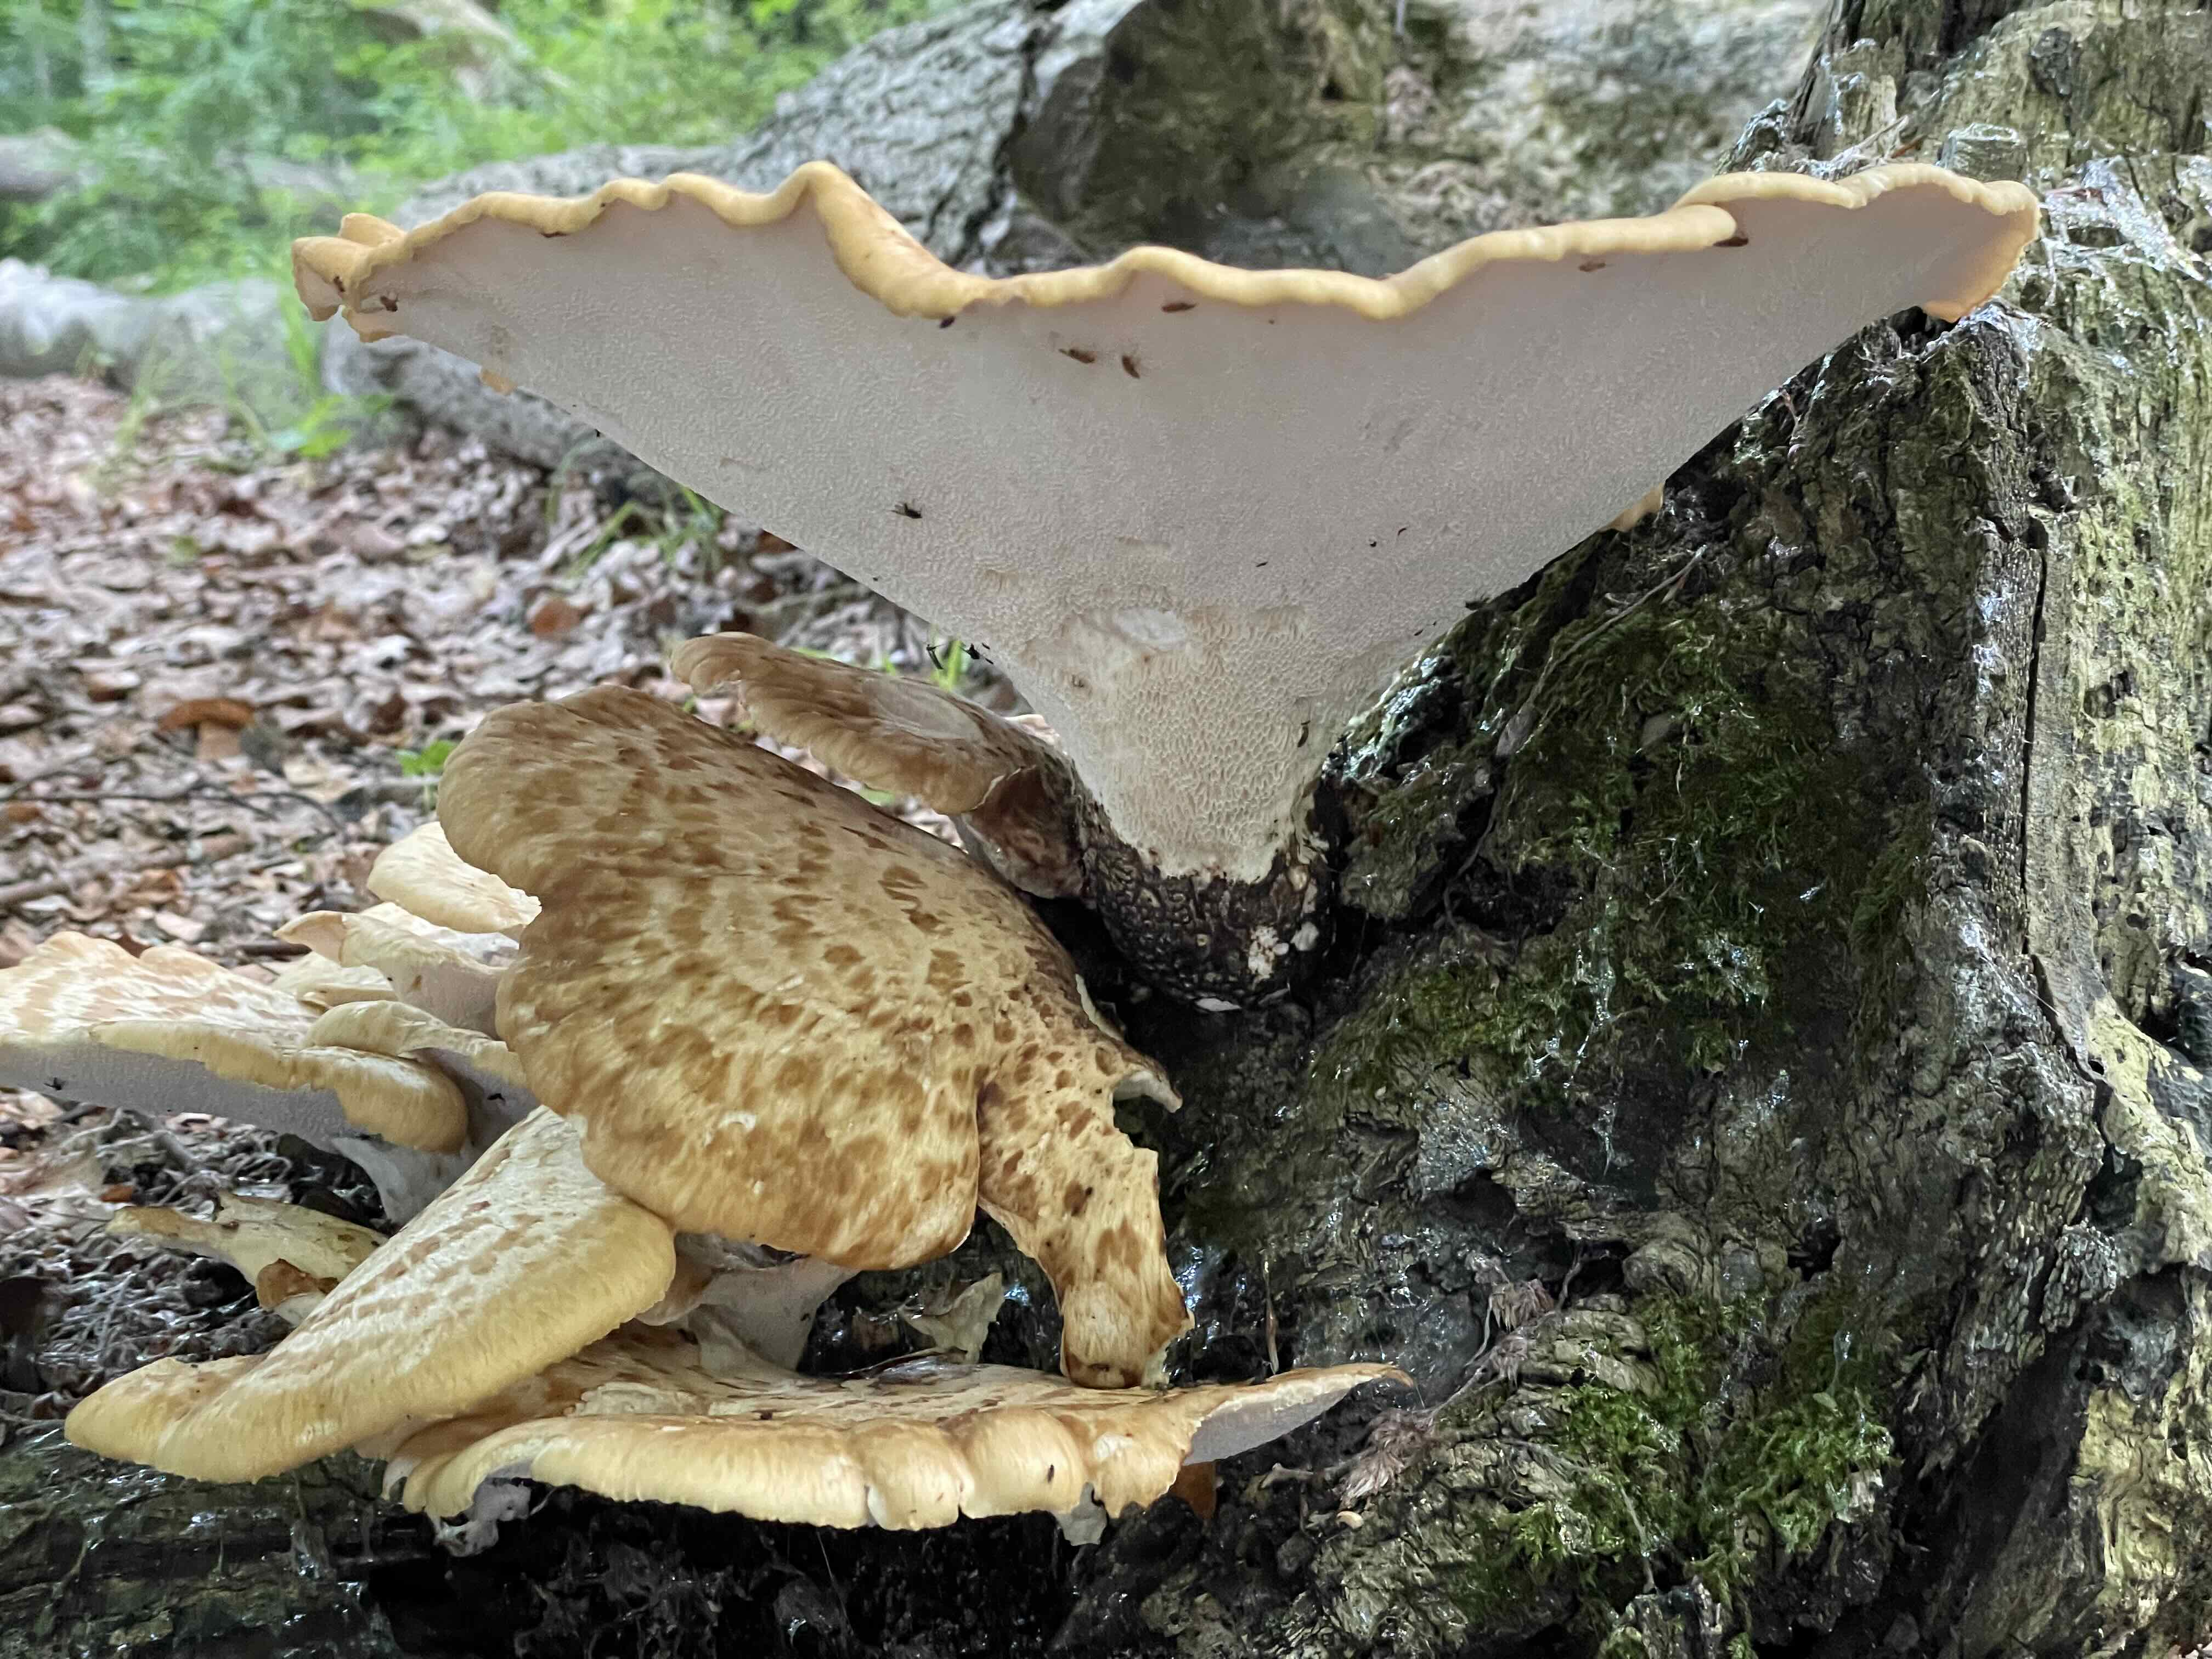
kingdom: Fungi
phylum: Basidiomycota
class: Agaricomycetes
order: Polyporales
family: Polyporaceae
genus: Cerioporus
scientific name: Cerioporus squamosus
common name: skællet stilkporesvamp
